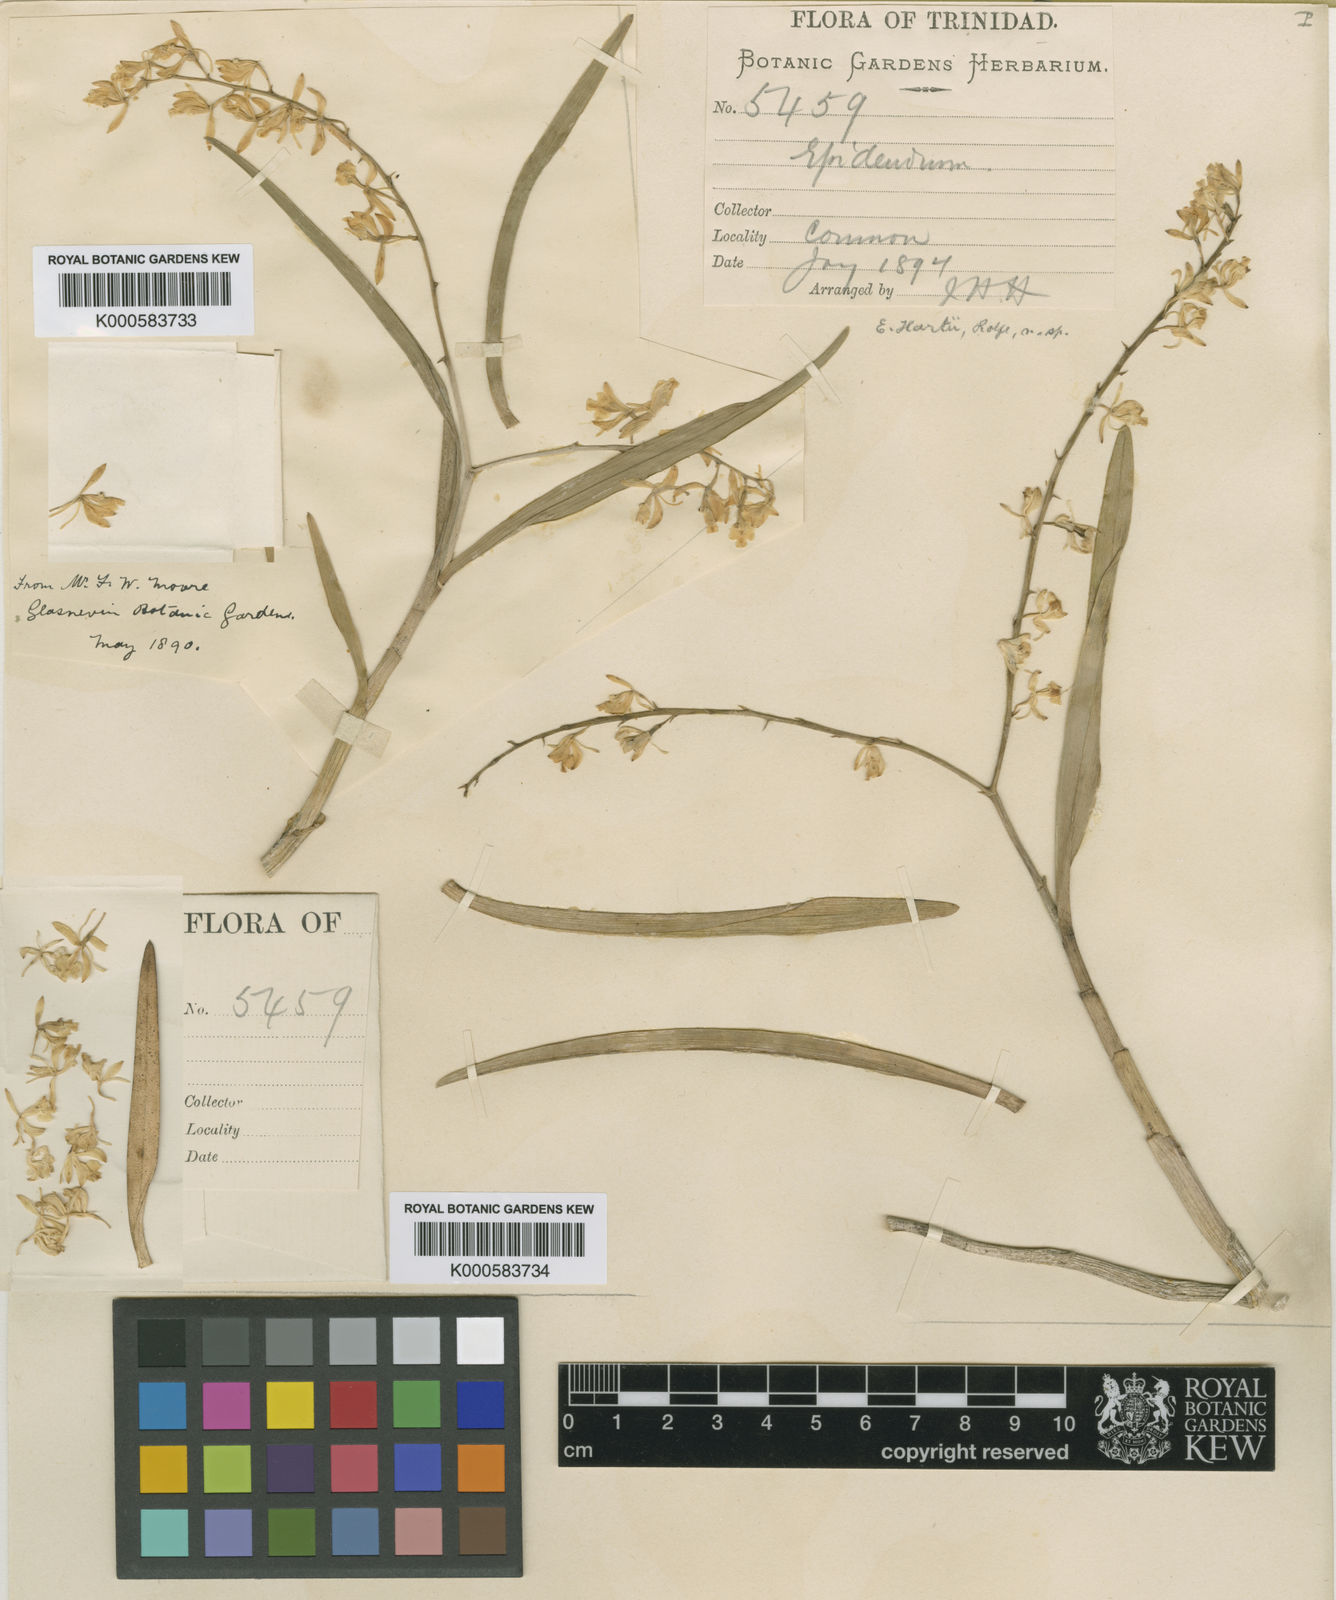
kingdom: Plantae
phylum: Tracheophyta
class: Liliopsida
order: Asparagales
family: Orchidaceae
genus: Epidendrum
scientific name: Epidendrum subpurum
